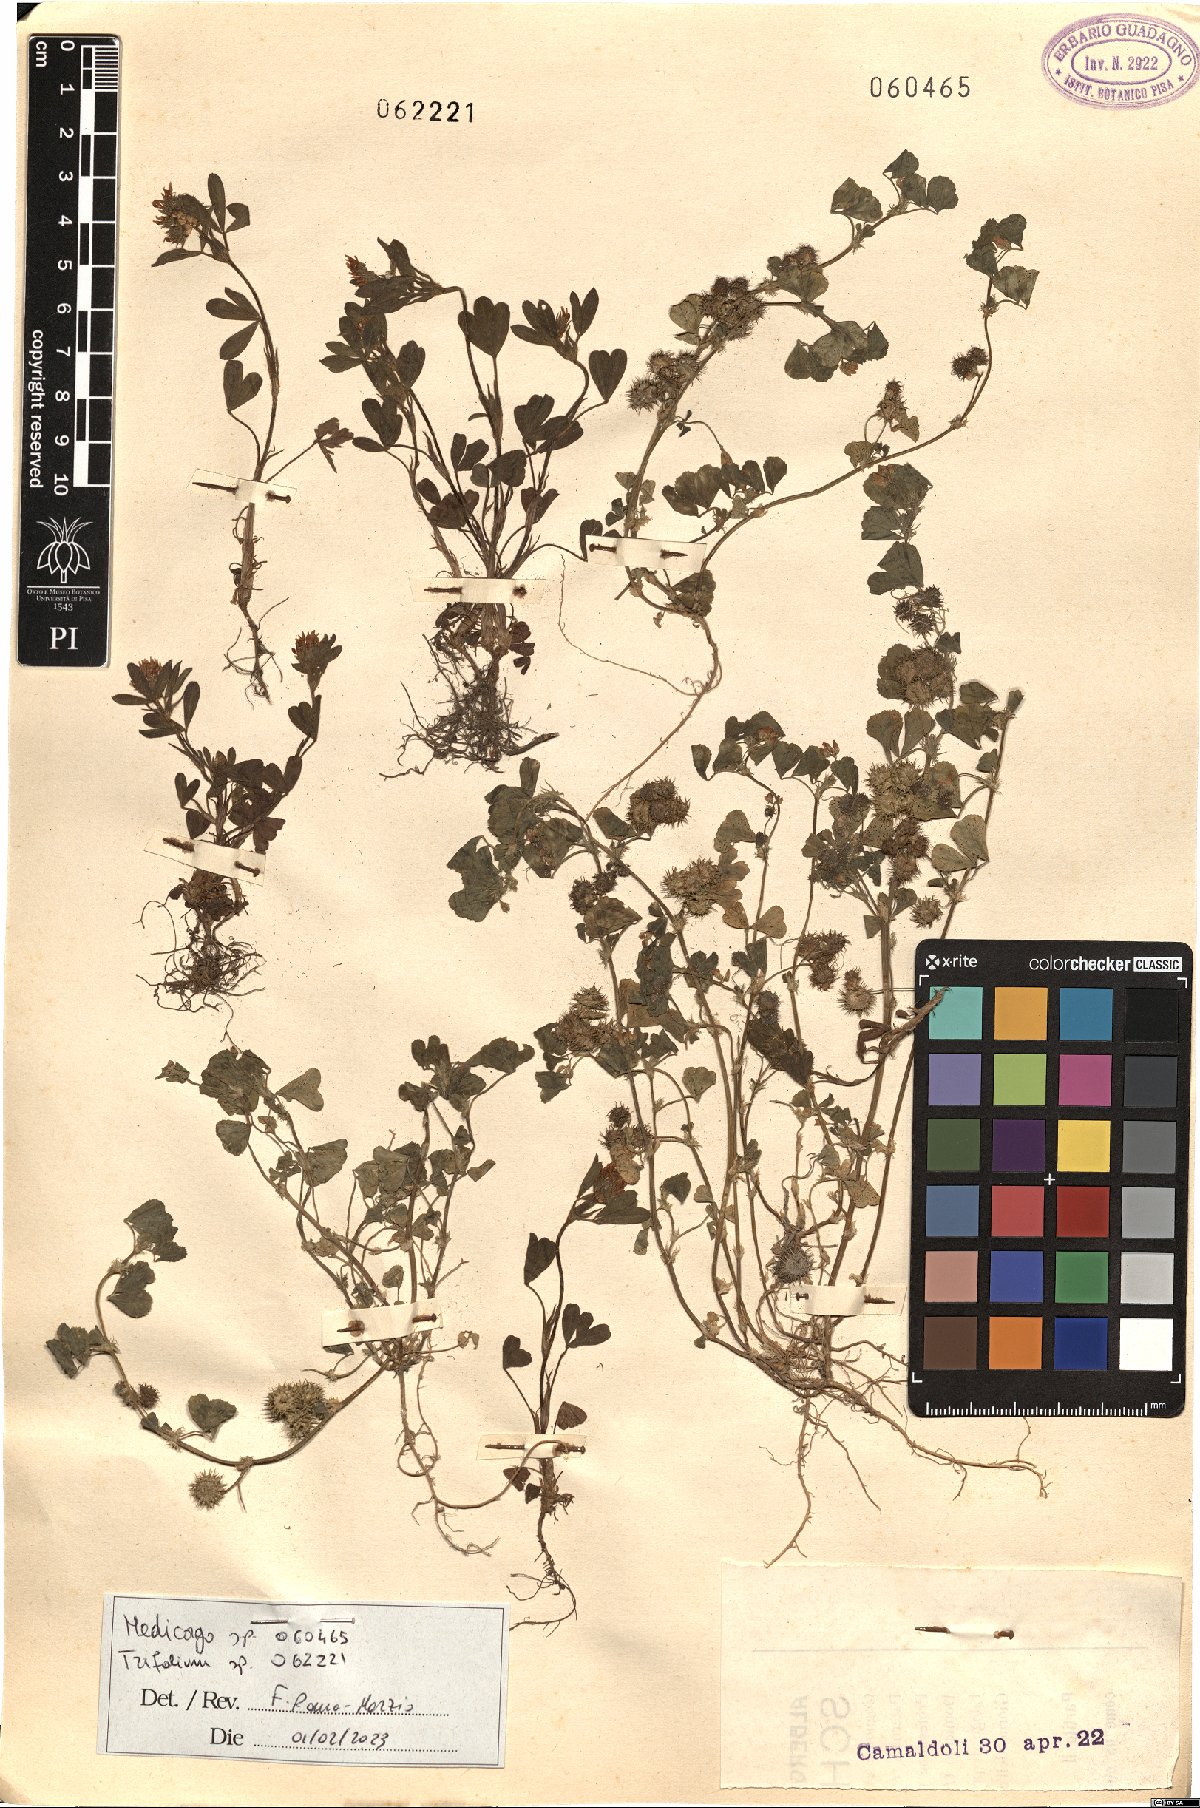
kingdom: Plantae
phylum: Tracheophyta
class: Magnoliopsida
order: Fabales
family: Fabaceae
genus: Trifolium
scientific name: Trifolium
